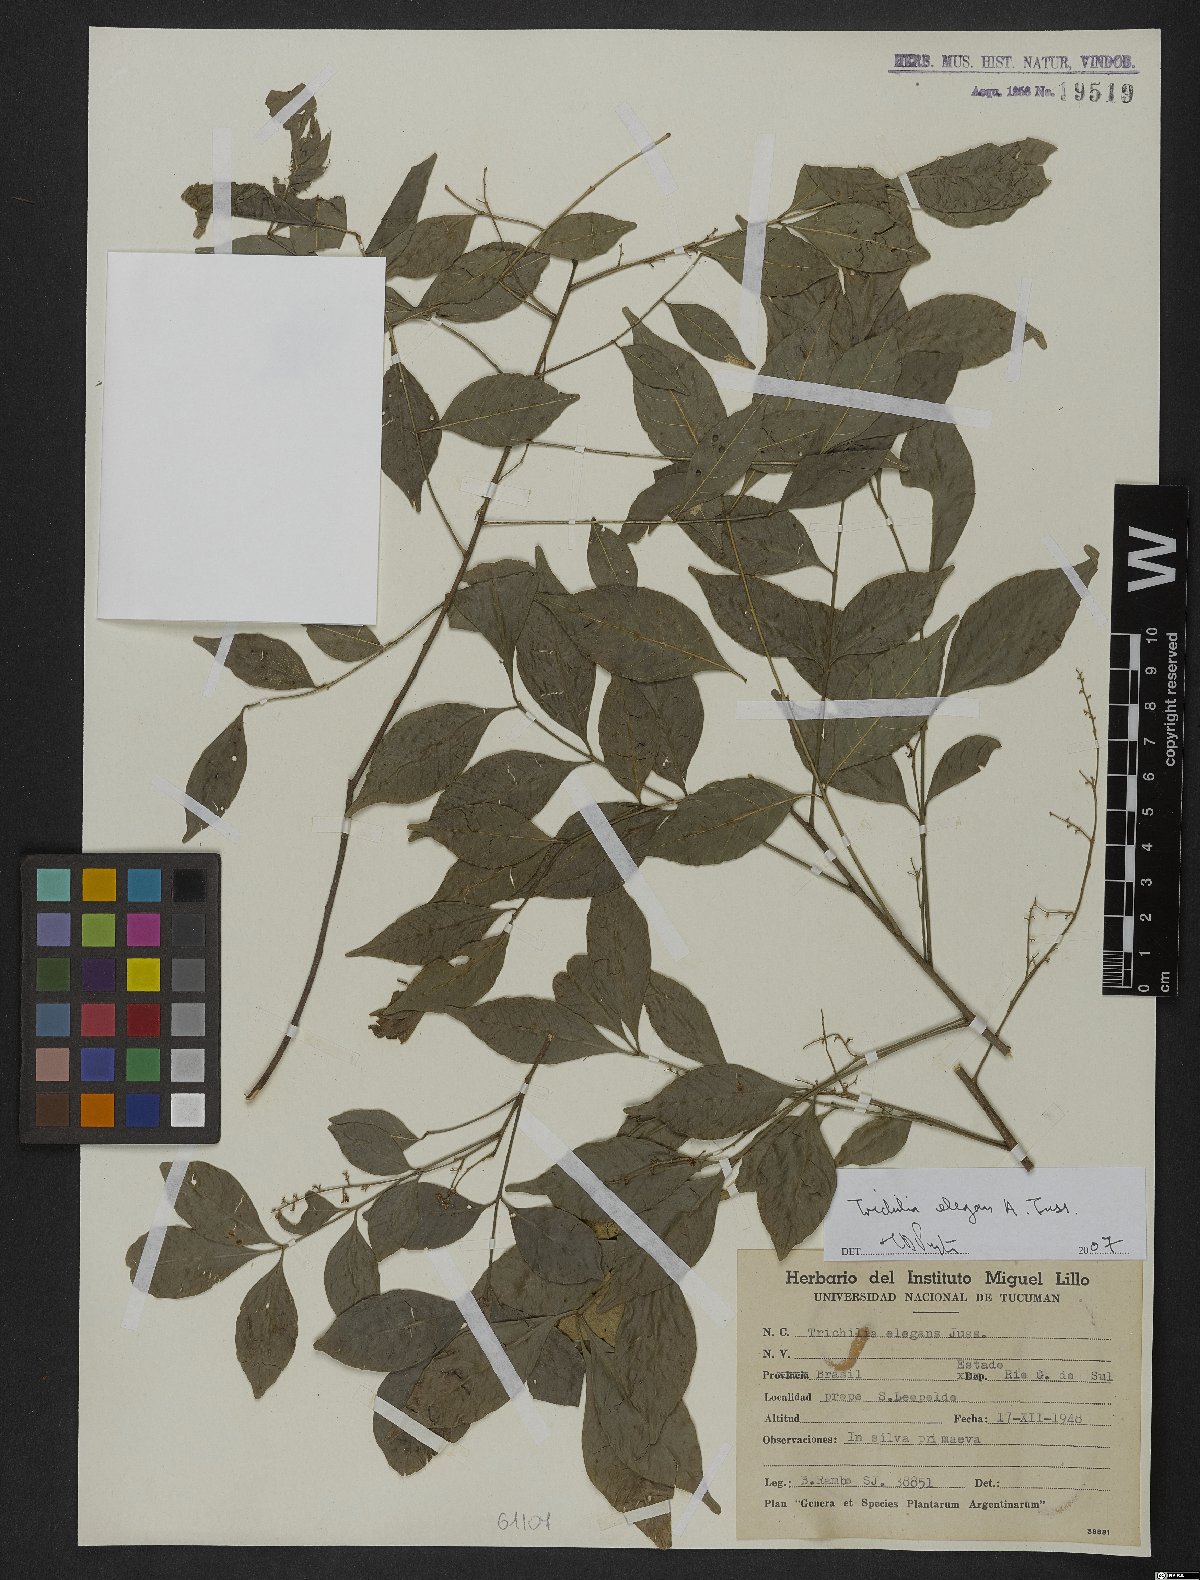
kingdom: Plantae
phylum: Tracheophyta
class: Magnoliopsida
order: Sapindales
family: Meliaceae
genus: Trichilia
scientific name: Trichilia elegans
